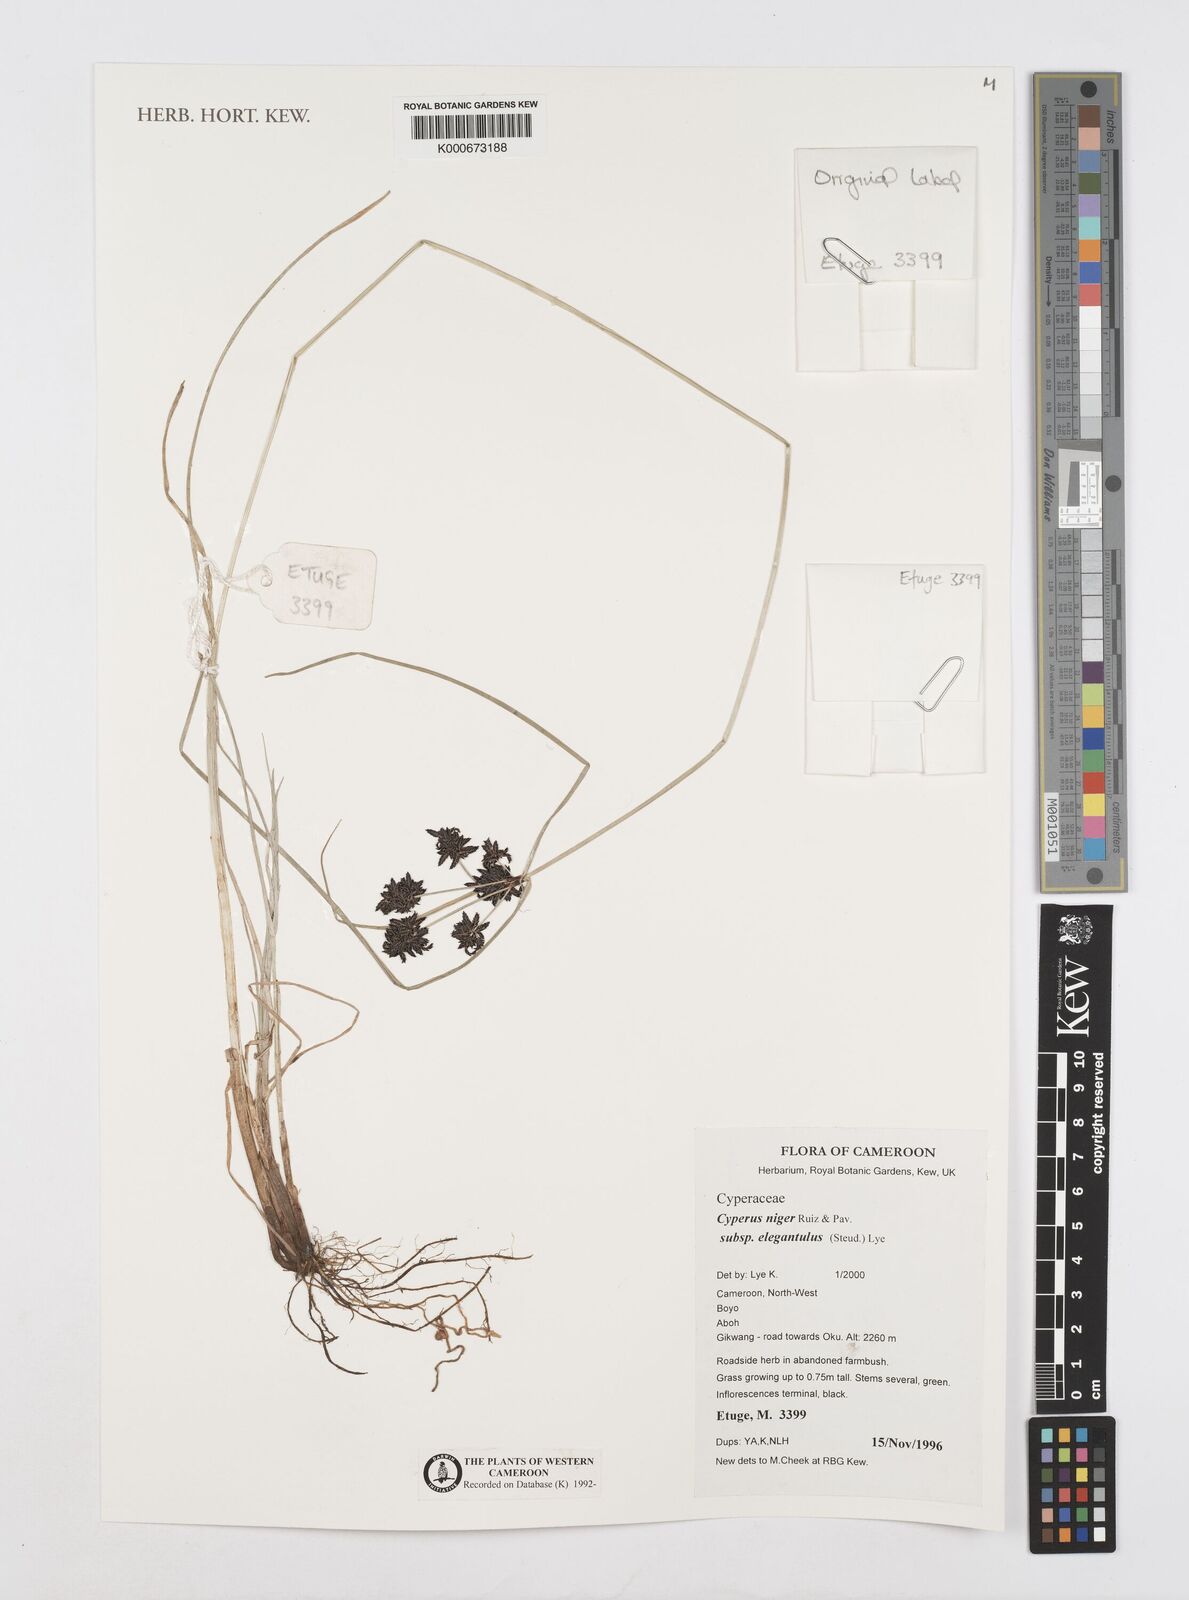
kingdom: Plantae
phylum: Tracheophyta
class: Liliopsida
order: Poales
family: Cyperaceae
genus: Cyperus
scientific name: Cyperus elegantulus
